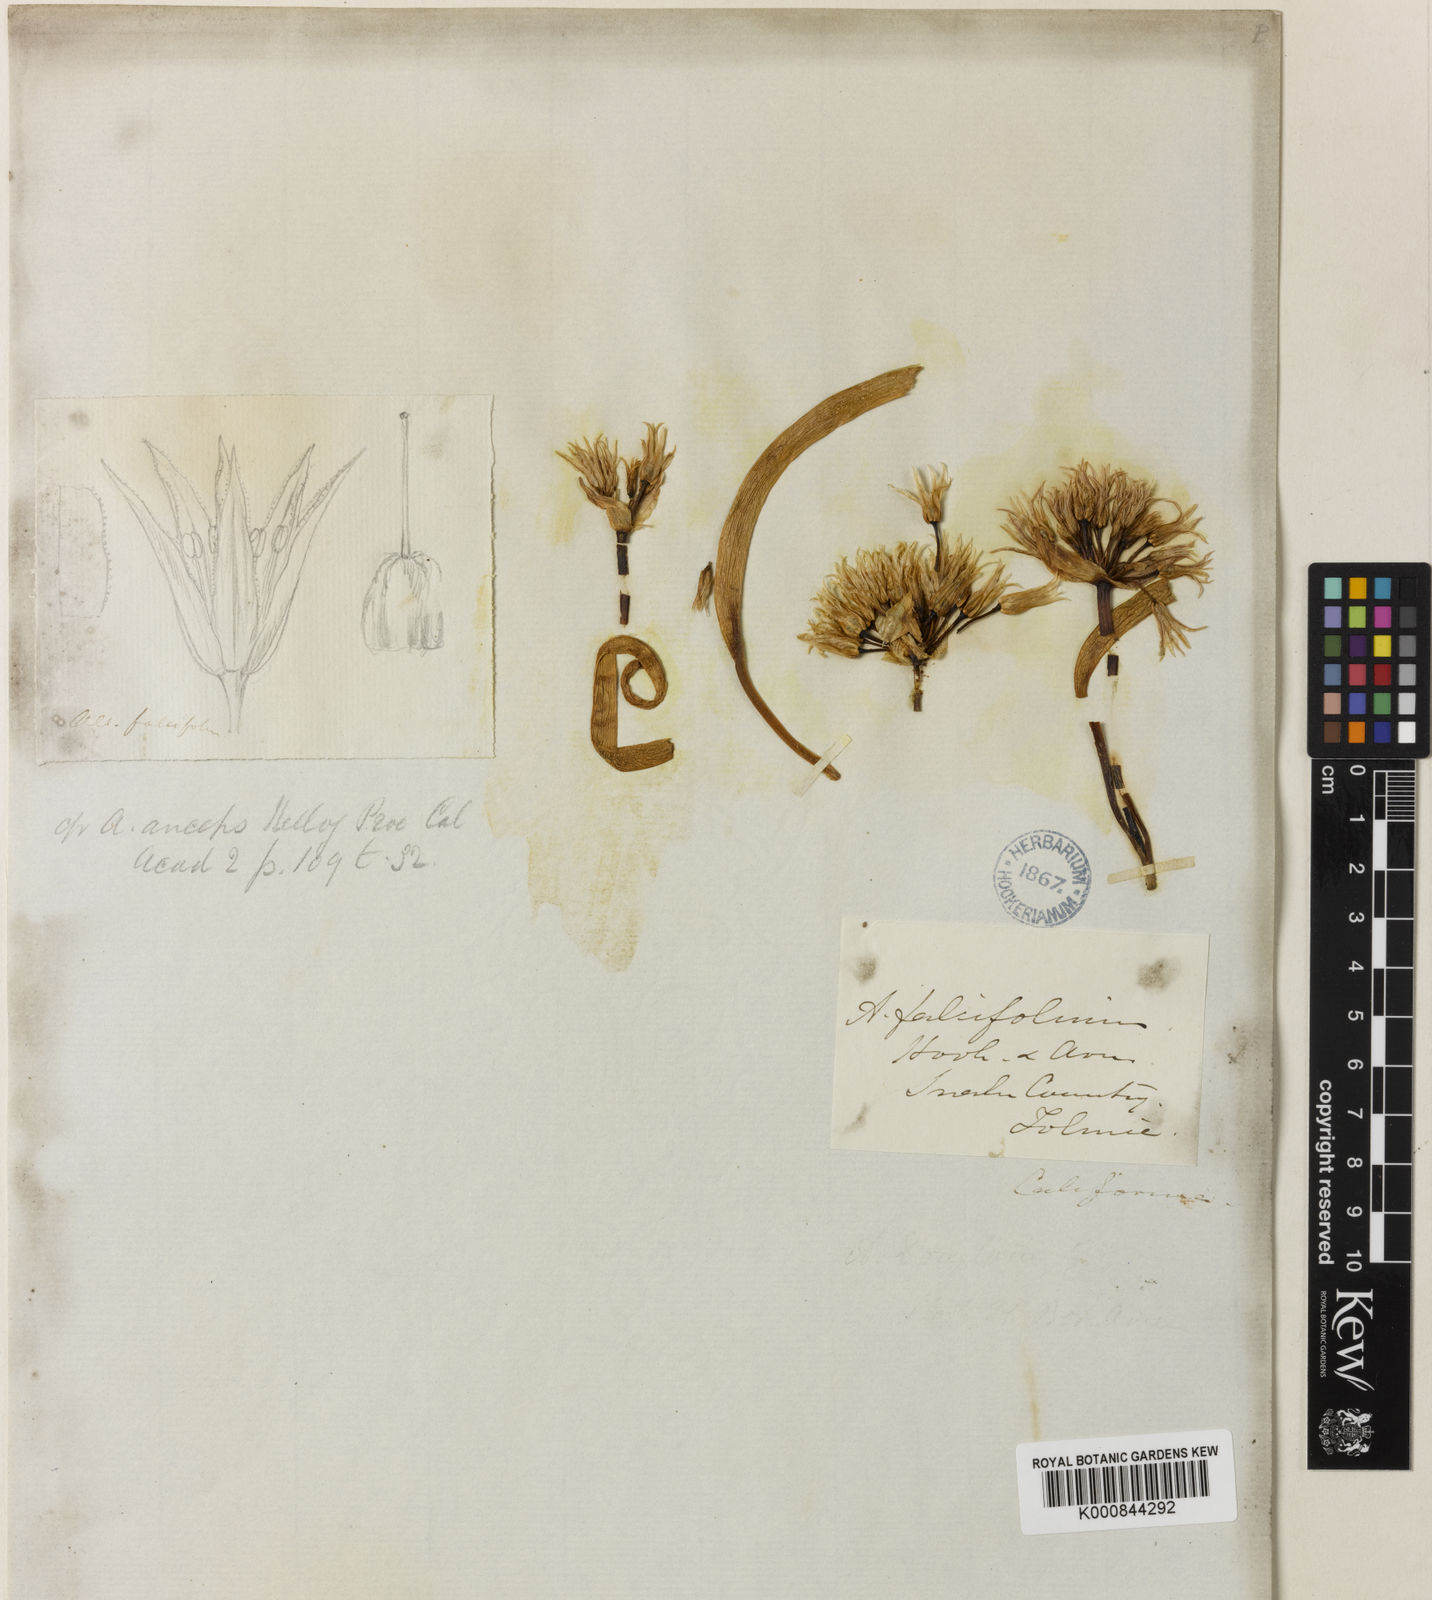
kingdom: Plantae
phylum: Tracheophyta
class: Liliopsida
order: Asparagales
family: Amaryllidaceae
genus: Allium
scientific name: Allium falcifolium
